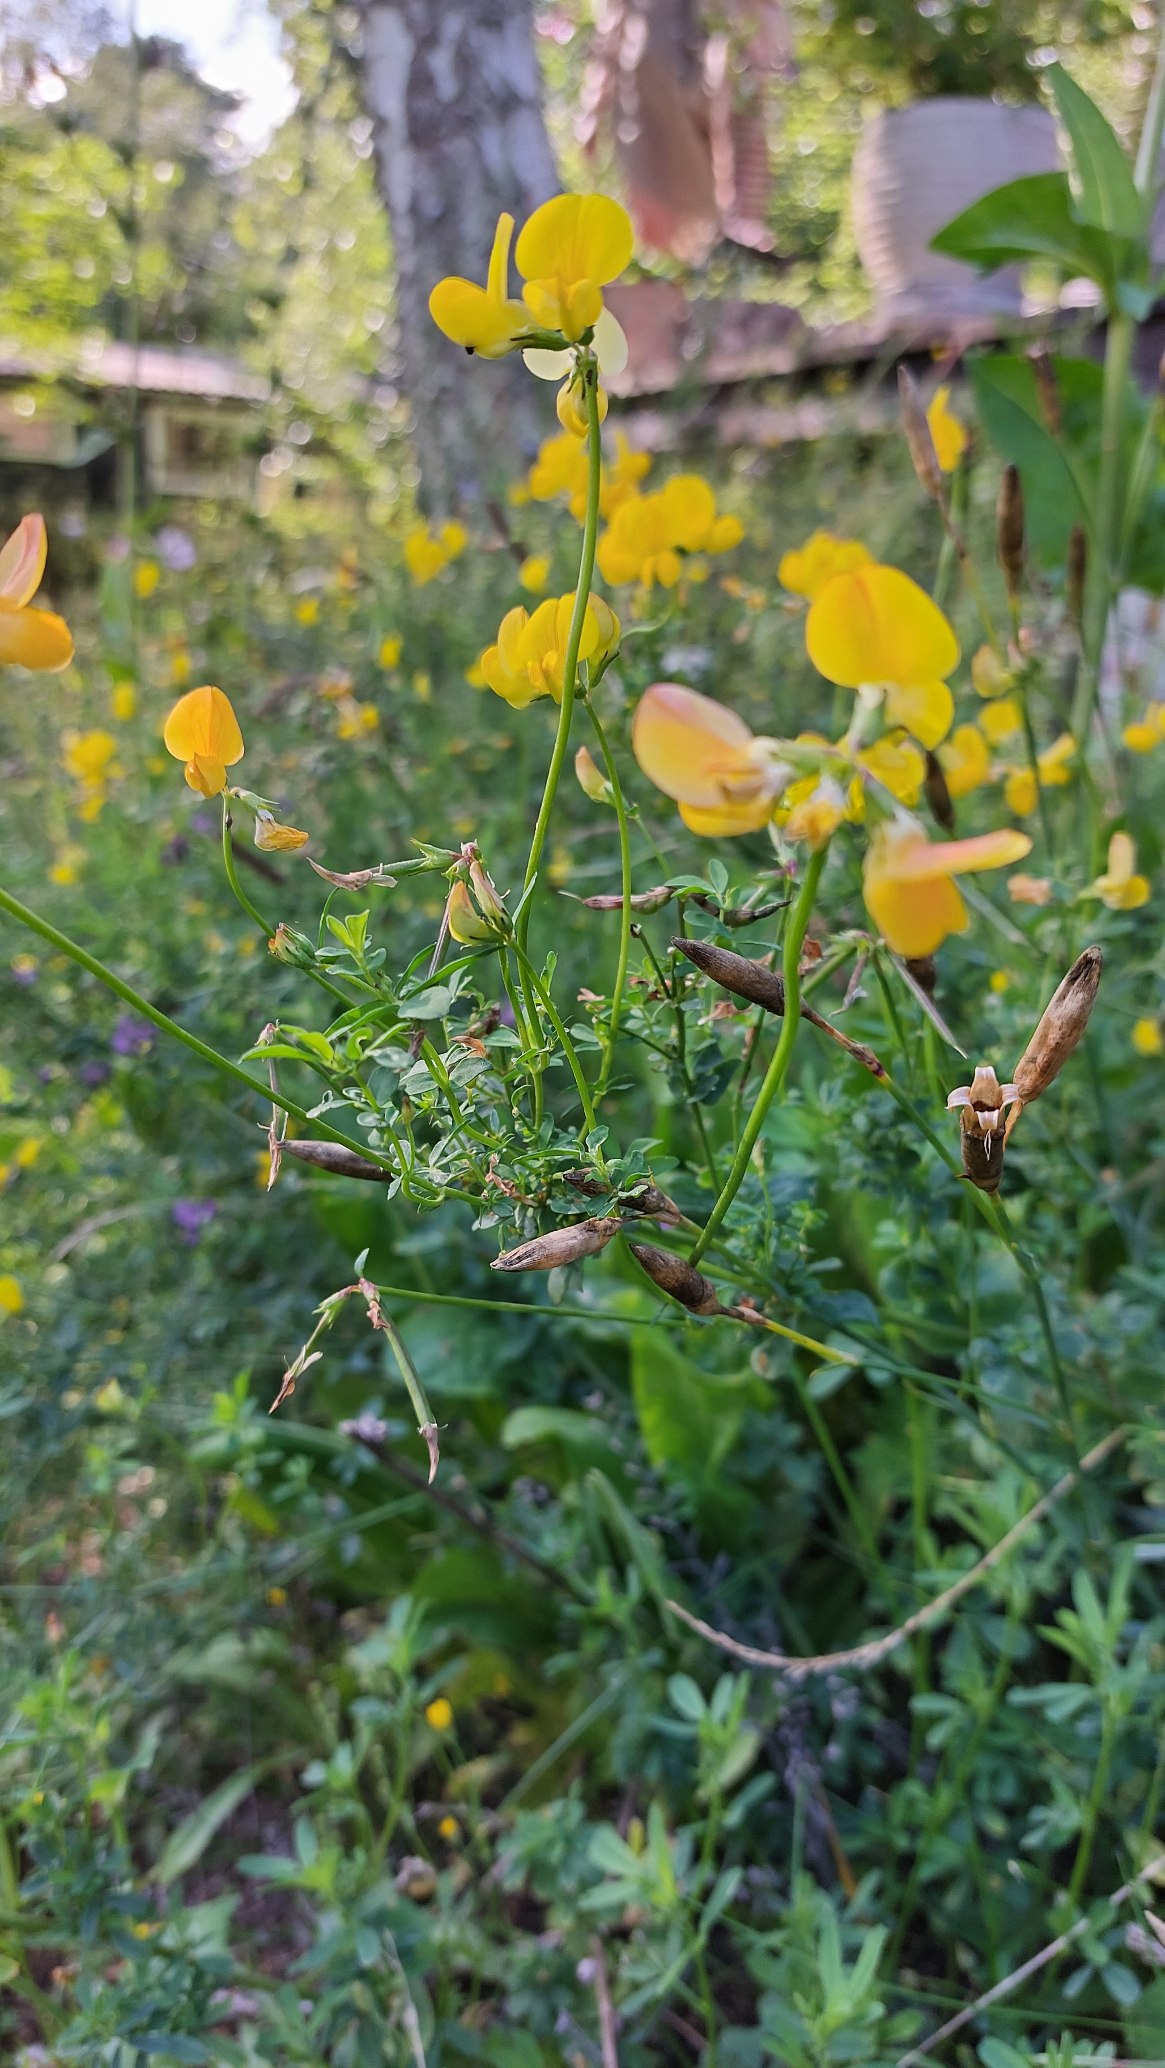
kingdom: Plantae
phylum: Tracheophyta
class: Magnoliopsida
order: Fabales
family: Fabaceae
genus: Lotus
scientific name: Lotus corniculatus
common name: Almindelig kællingetand
